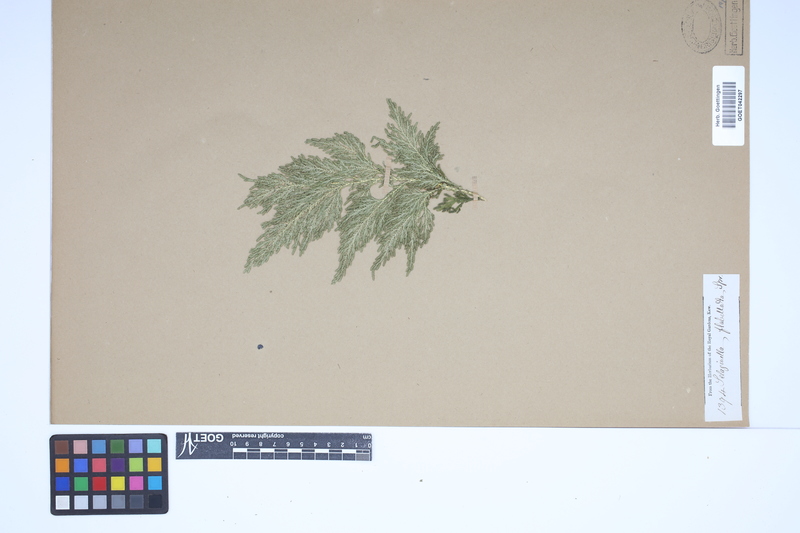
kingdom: Plantae
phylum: Tracheophyta
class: Lycopodiopsida
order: Selaginellales
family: Selaginellaceae
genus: Selaginella
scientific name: Selaginella flabellata
